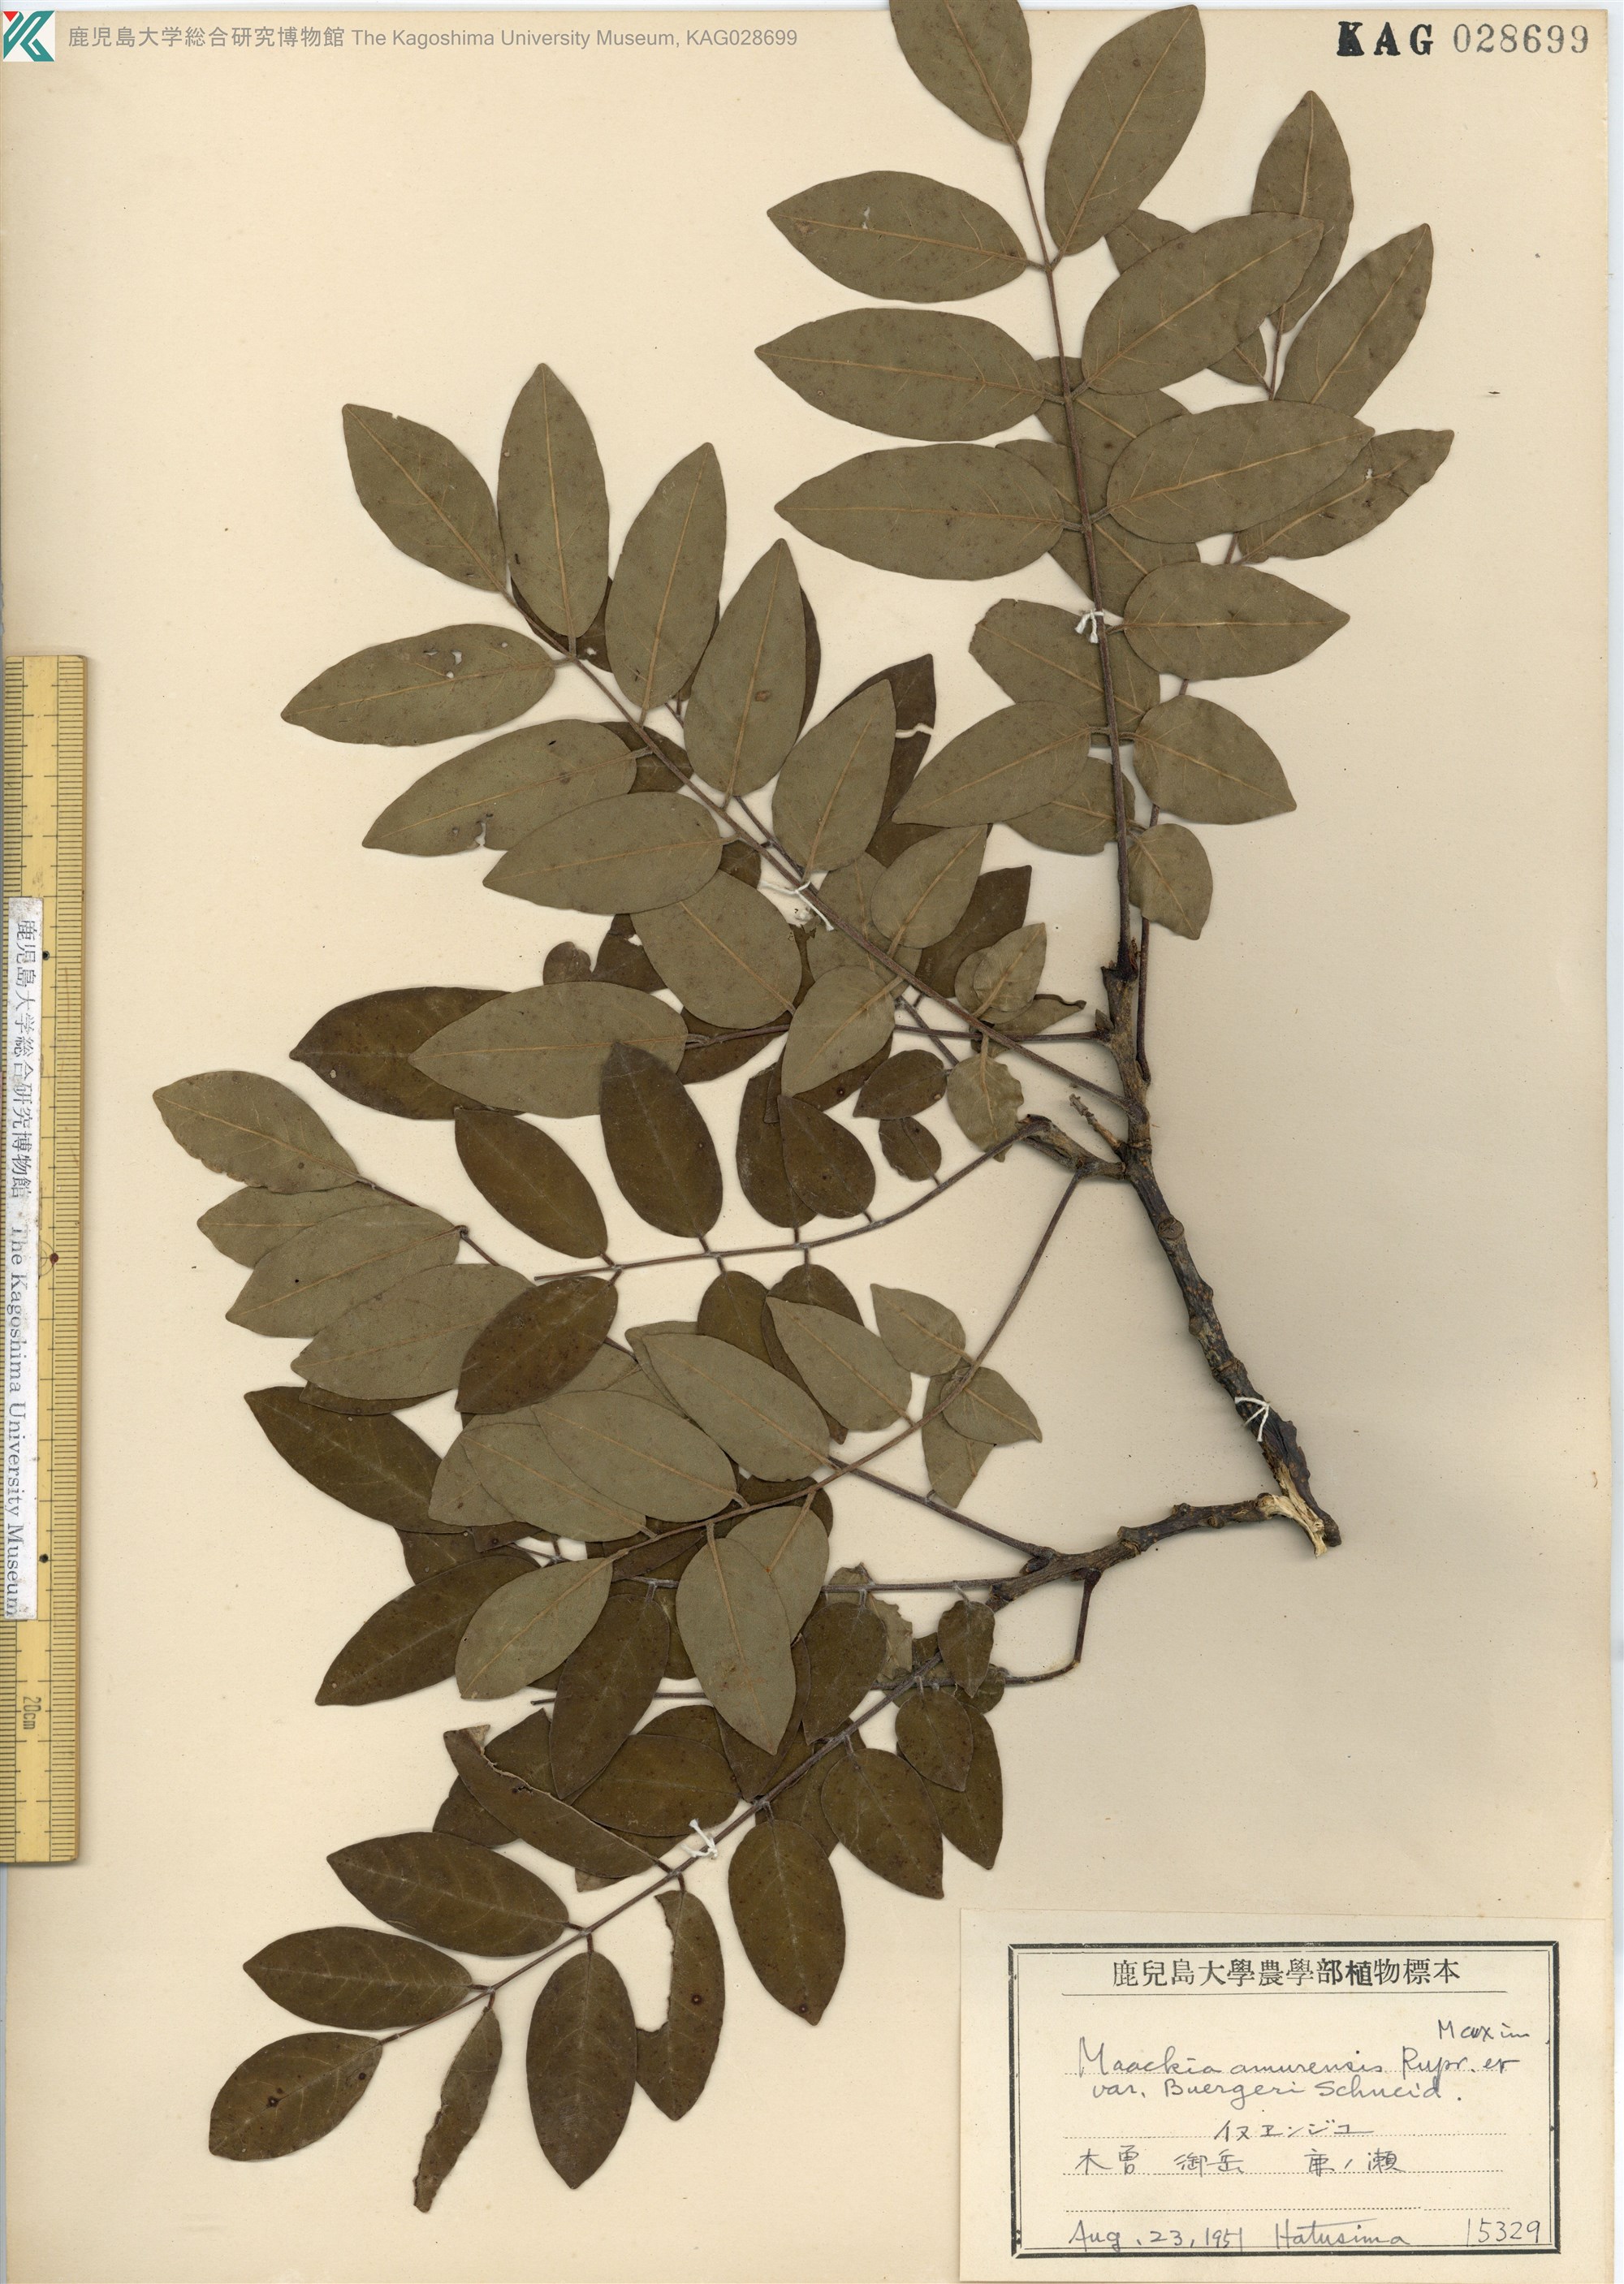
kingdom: Plantae
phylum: Tracheophyta
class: Magnoliopsida
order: Fabales
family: Fabaceae
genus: Maackia
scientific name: Maackia amurensis
